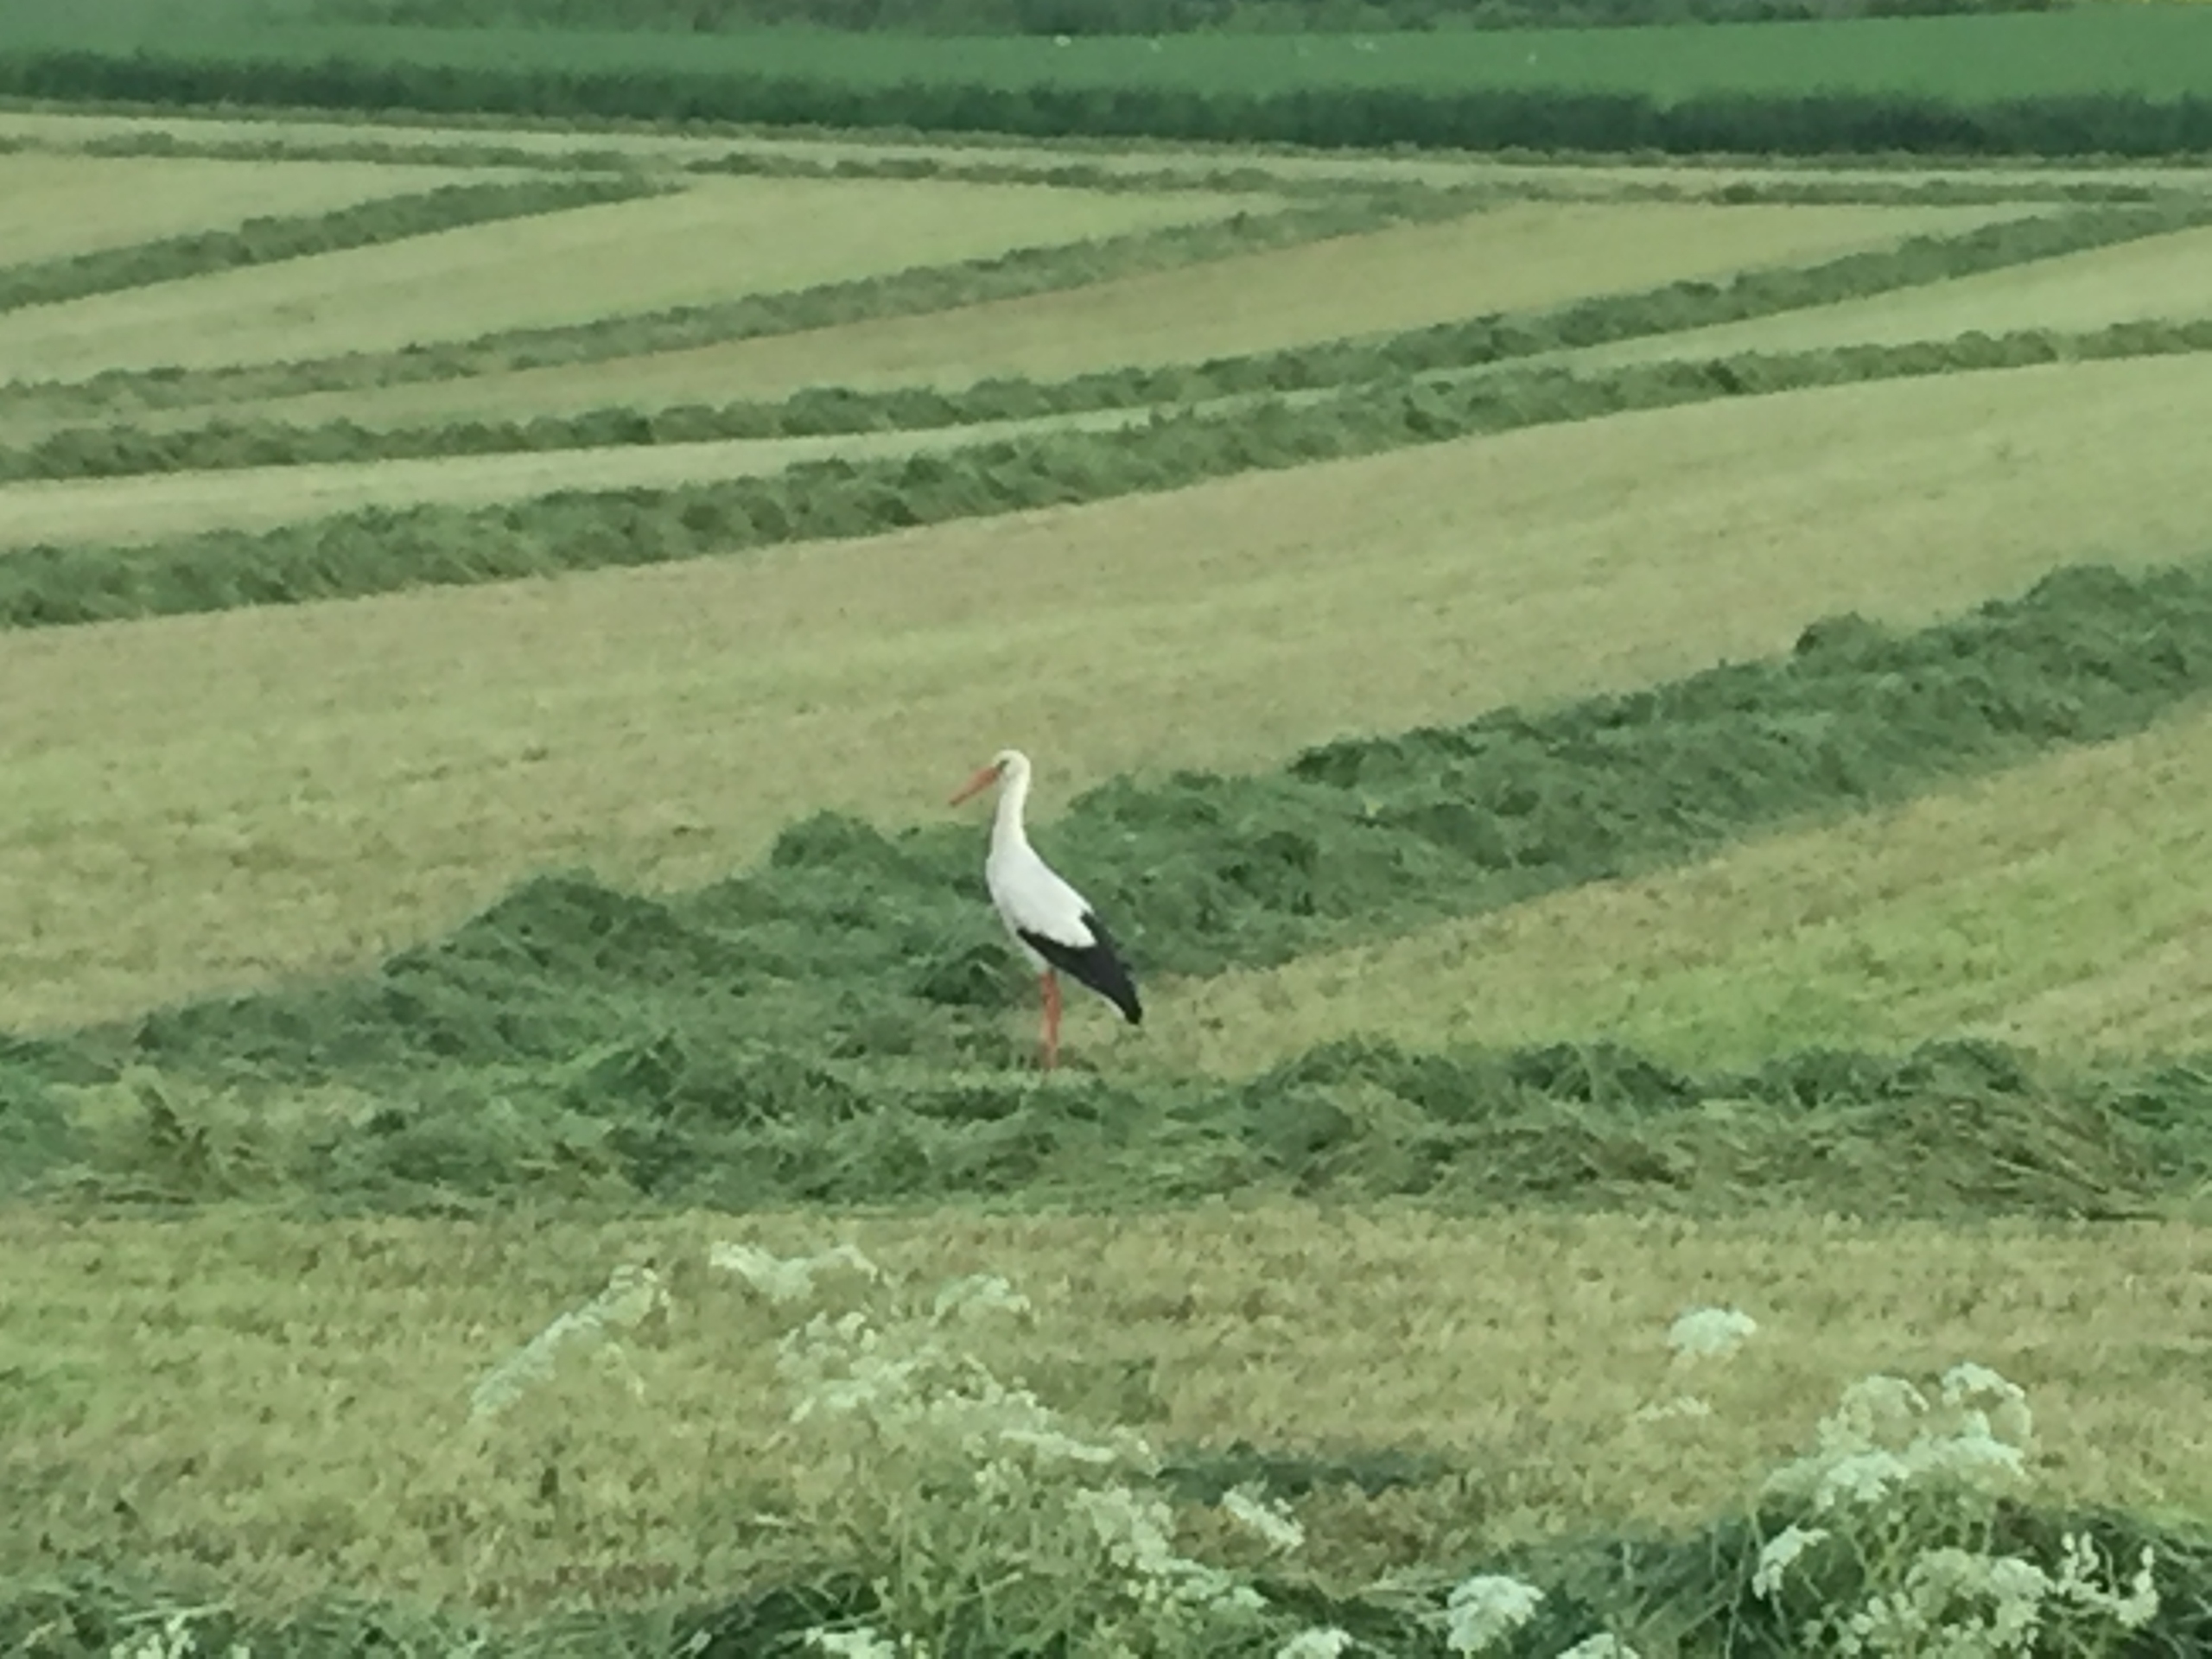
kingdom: Animalia
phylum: Chordata
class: Aves
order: Ciconiiformes
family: Ciconiidae
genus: Ciconia
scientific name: Ciconia ciconia
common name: Hvid stork
